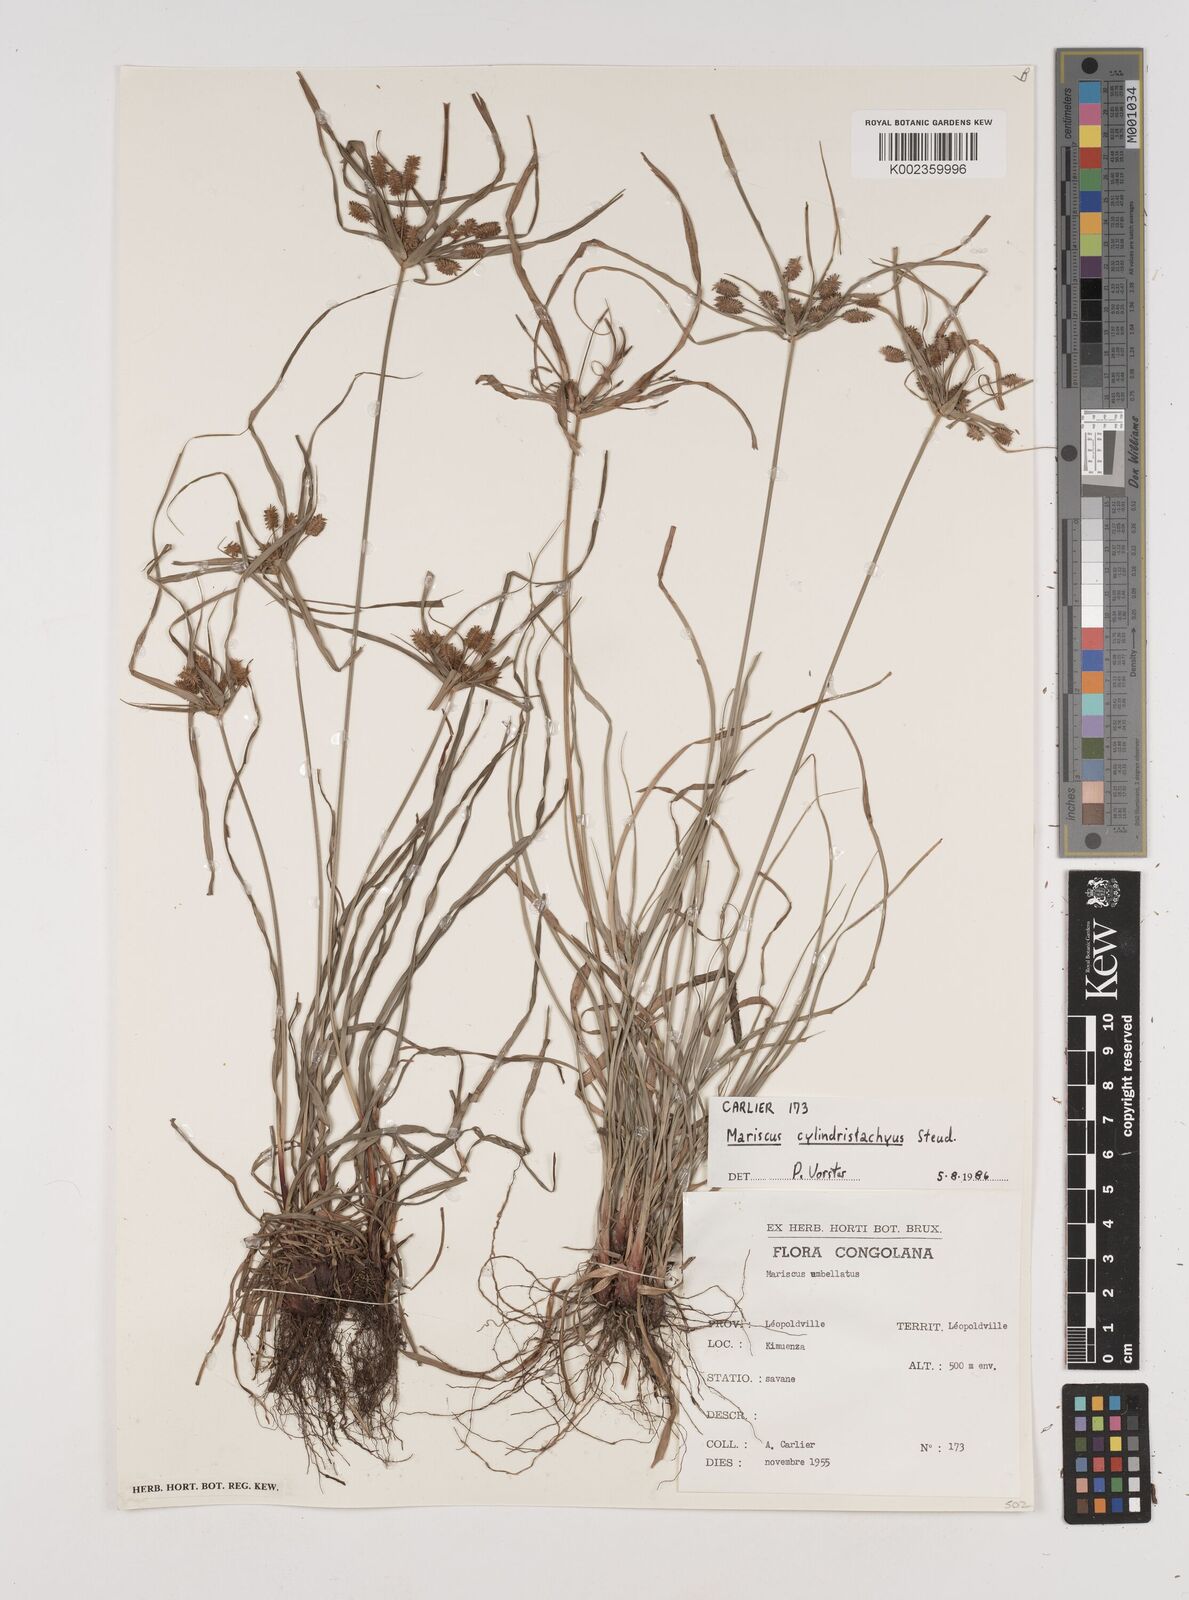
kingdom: Plantae
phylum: Tracheophyta
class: Liliopsida
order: Poales
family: Cyperaceae
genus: Cyperus
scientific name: Cyperus cyperoides
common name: Pacific island flat sedge
